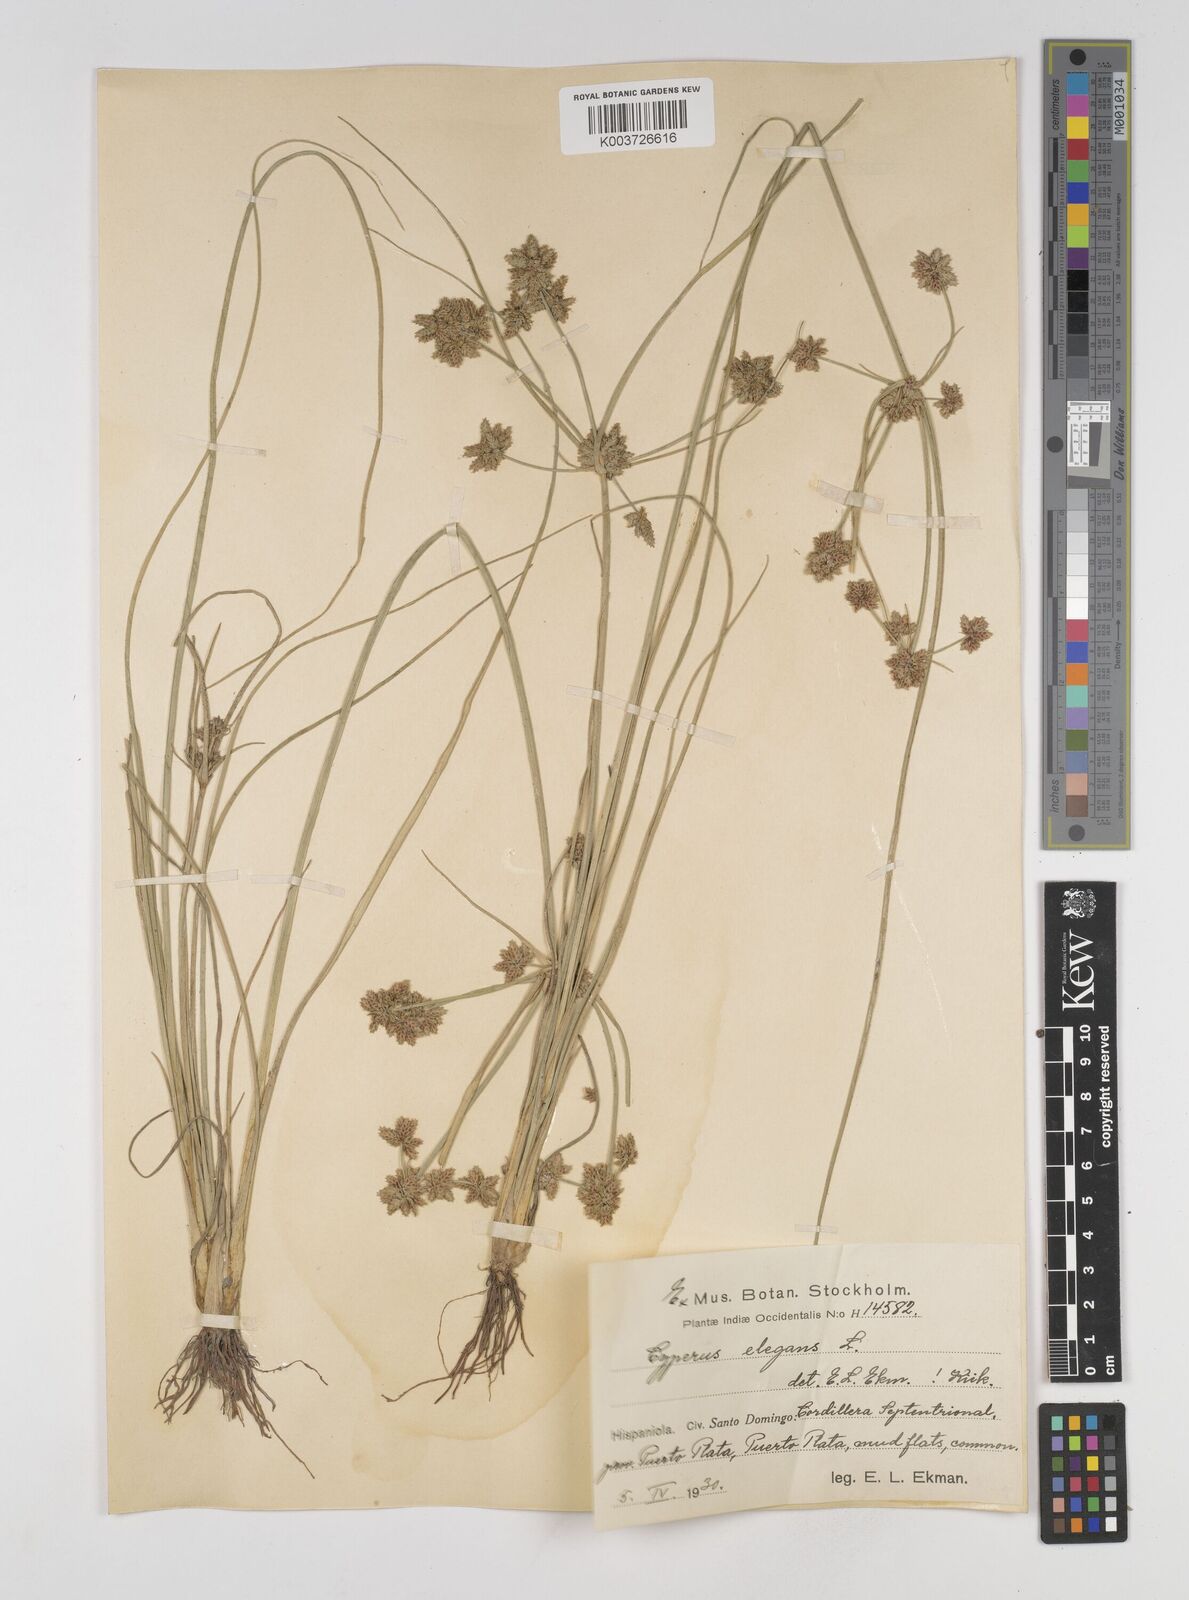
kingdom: Plantae
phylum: Tracheophyta
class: Liliopsida
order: Poales
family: Cyperaceae
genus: Cyperus
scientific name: Cyperus elegans
